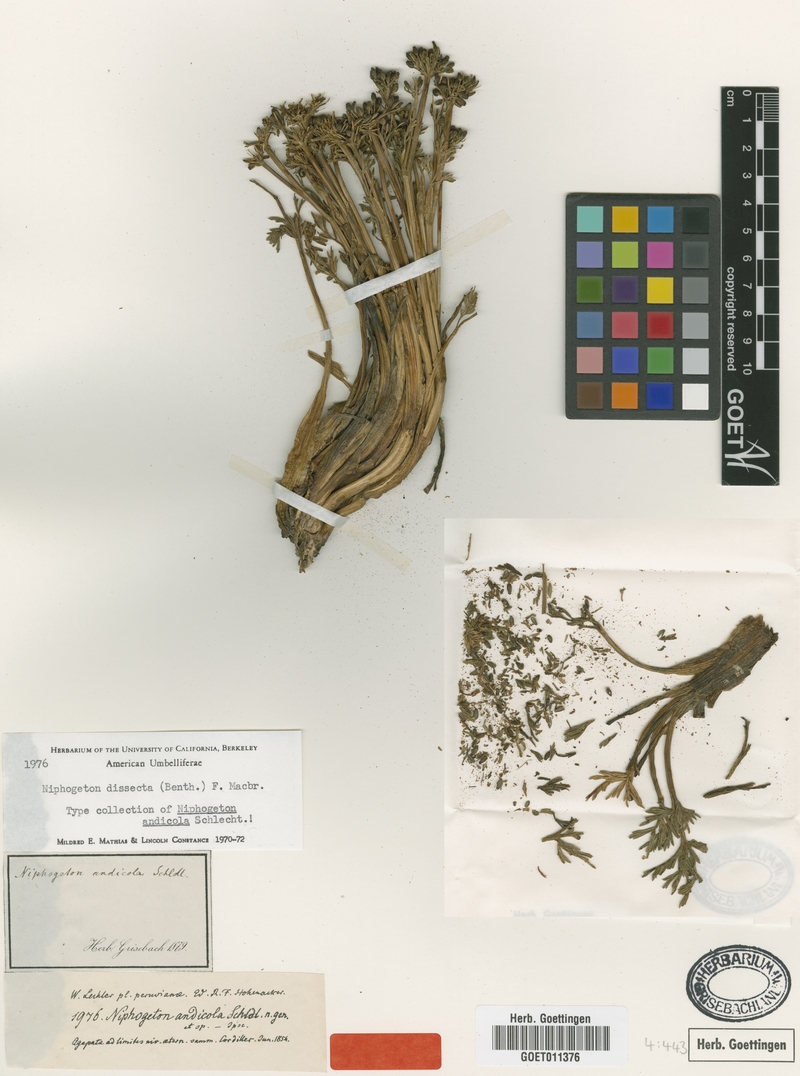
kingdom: Plantae
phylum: Tracheophyta
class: Magnoliopsida
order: Apiales
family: Apiaceae
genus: Niphogeton
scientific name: Niphogeton dissecta
